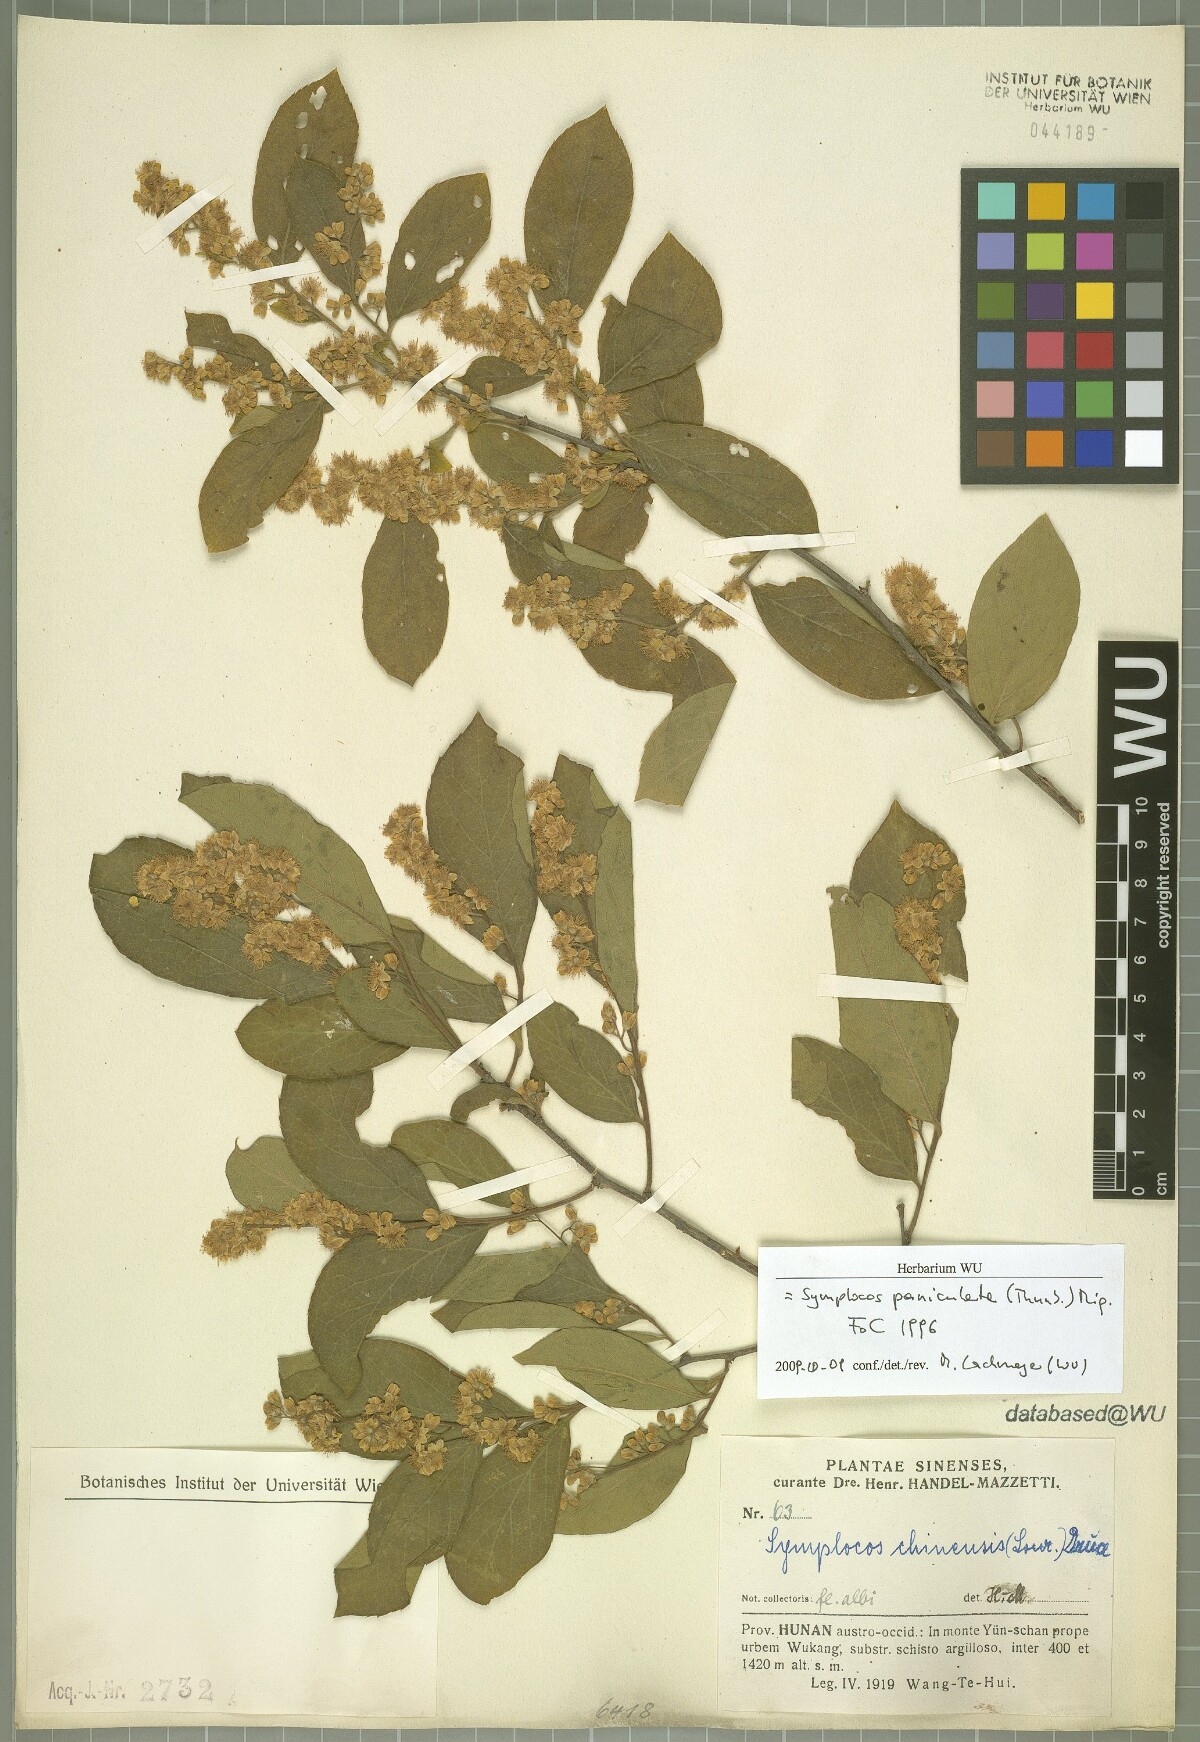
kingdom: Plantae
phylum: Tracheophyta
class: Magnoliopsida
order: Ericales
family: Symplocaceae
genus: Symplocos
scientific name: Symplocos paniculata
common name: Sapphire-berry
